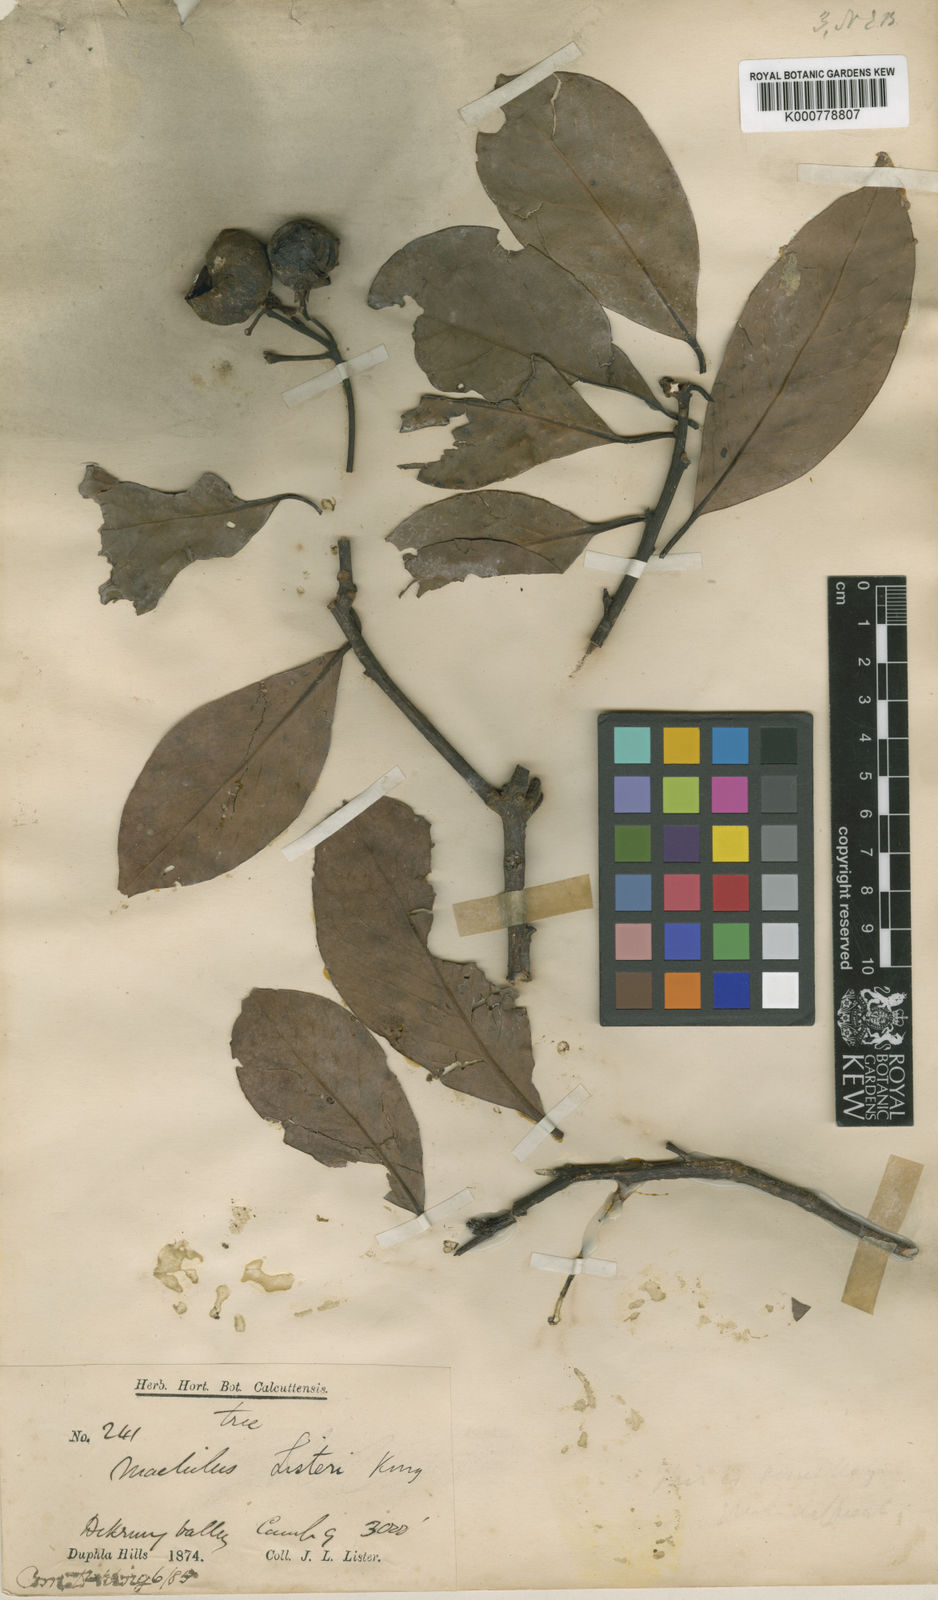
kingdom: Plantae
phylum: Tracheophyta
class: Magnoliopsida
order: Laurales
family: Lauraceae
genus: Machilus
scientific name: Machilus listeri
